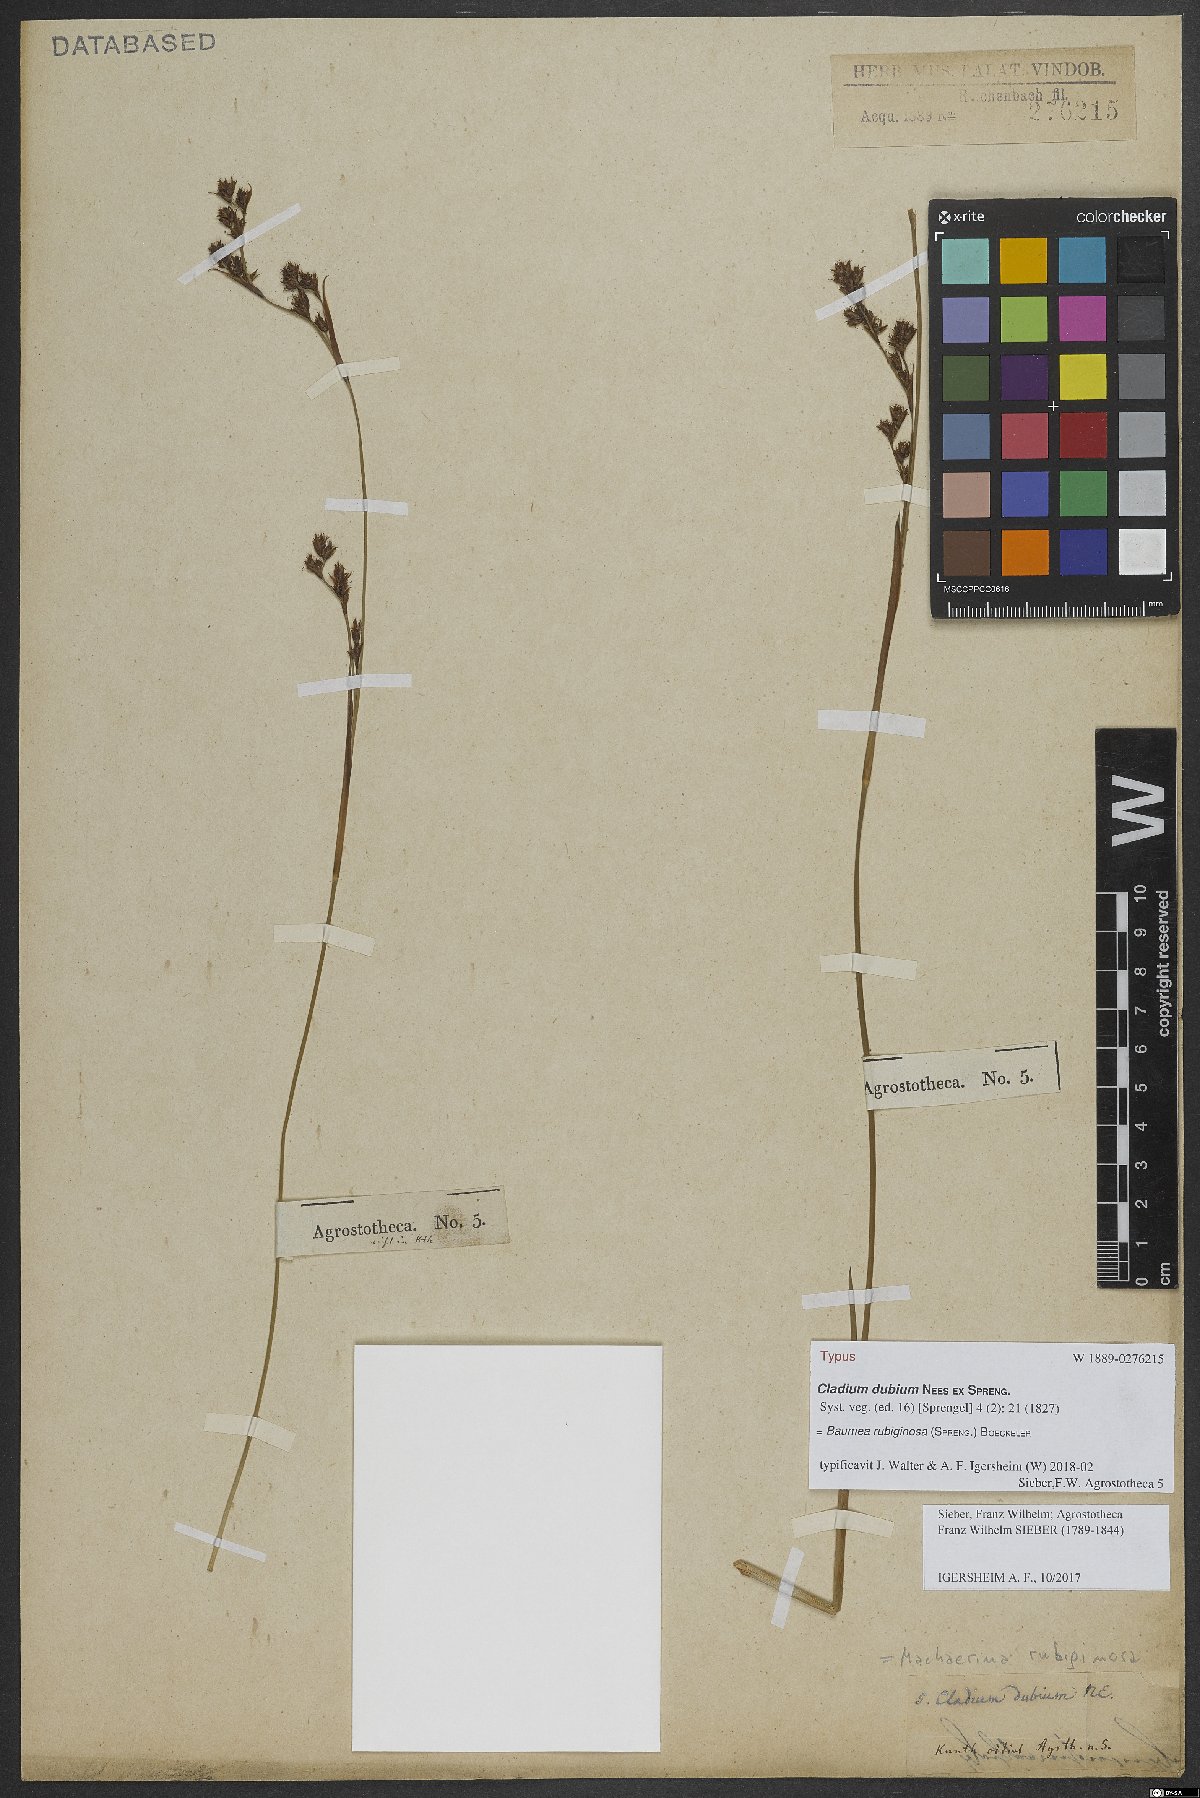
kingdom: Plantae
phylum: Tracheophyta
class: Liliopsida
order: Poales
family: Cyperaceae
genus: Machaerina
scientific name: Machaerina rubiginosa
